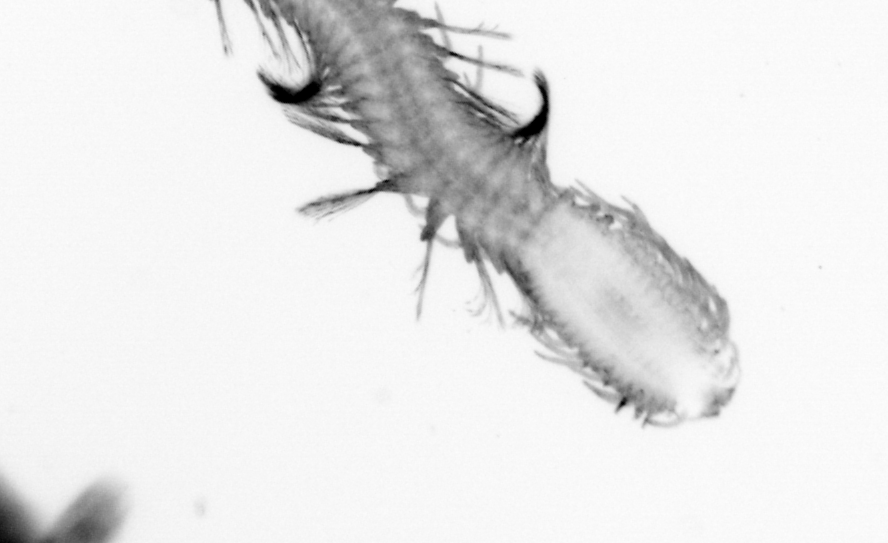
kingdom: Animalia
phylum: Annelida
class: Polychaeta
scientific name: Polychaeta
